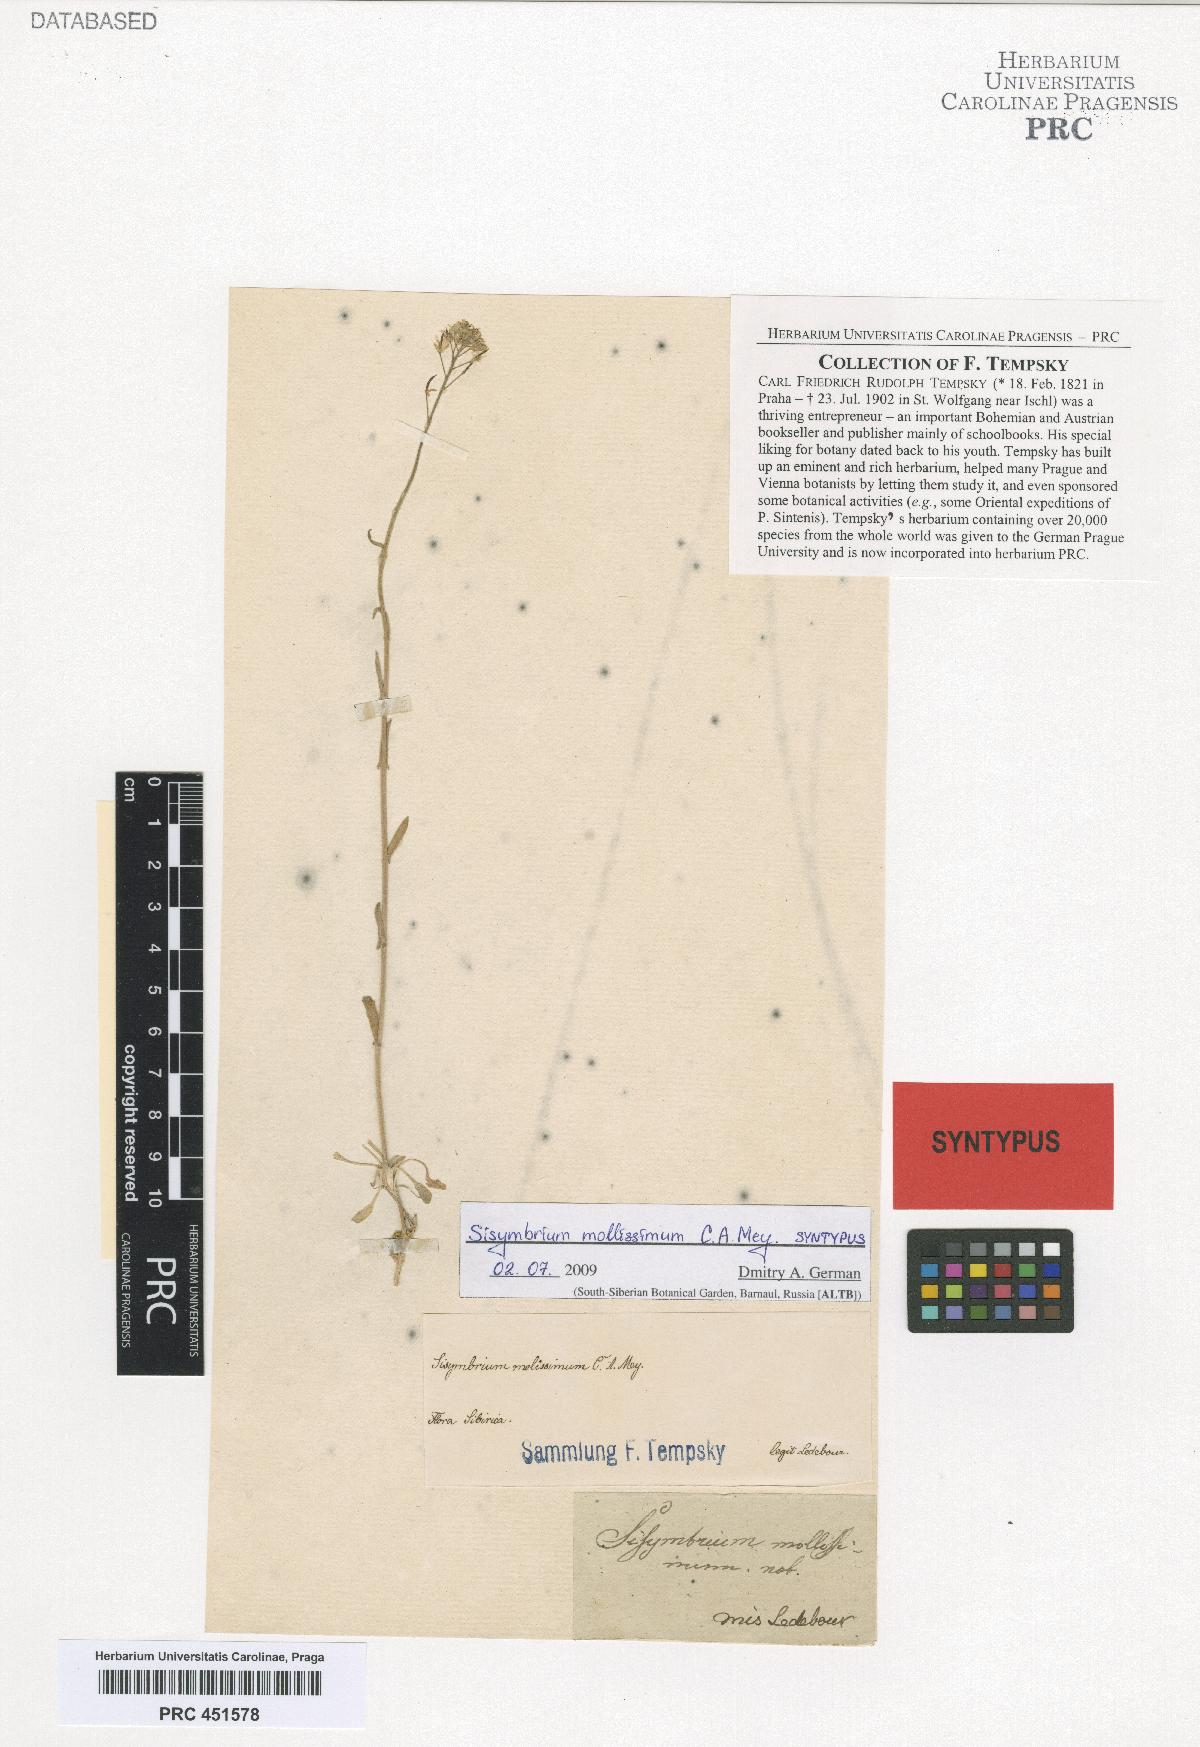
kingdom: Plantae
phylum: Tracheophyta
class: Magnoliopsida
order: Brassicales
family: Brassicaceae
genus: Crucihimalaya
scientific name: Crucihimalaya mollissima
